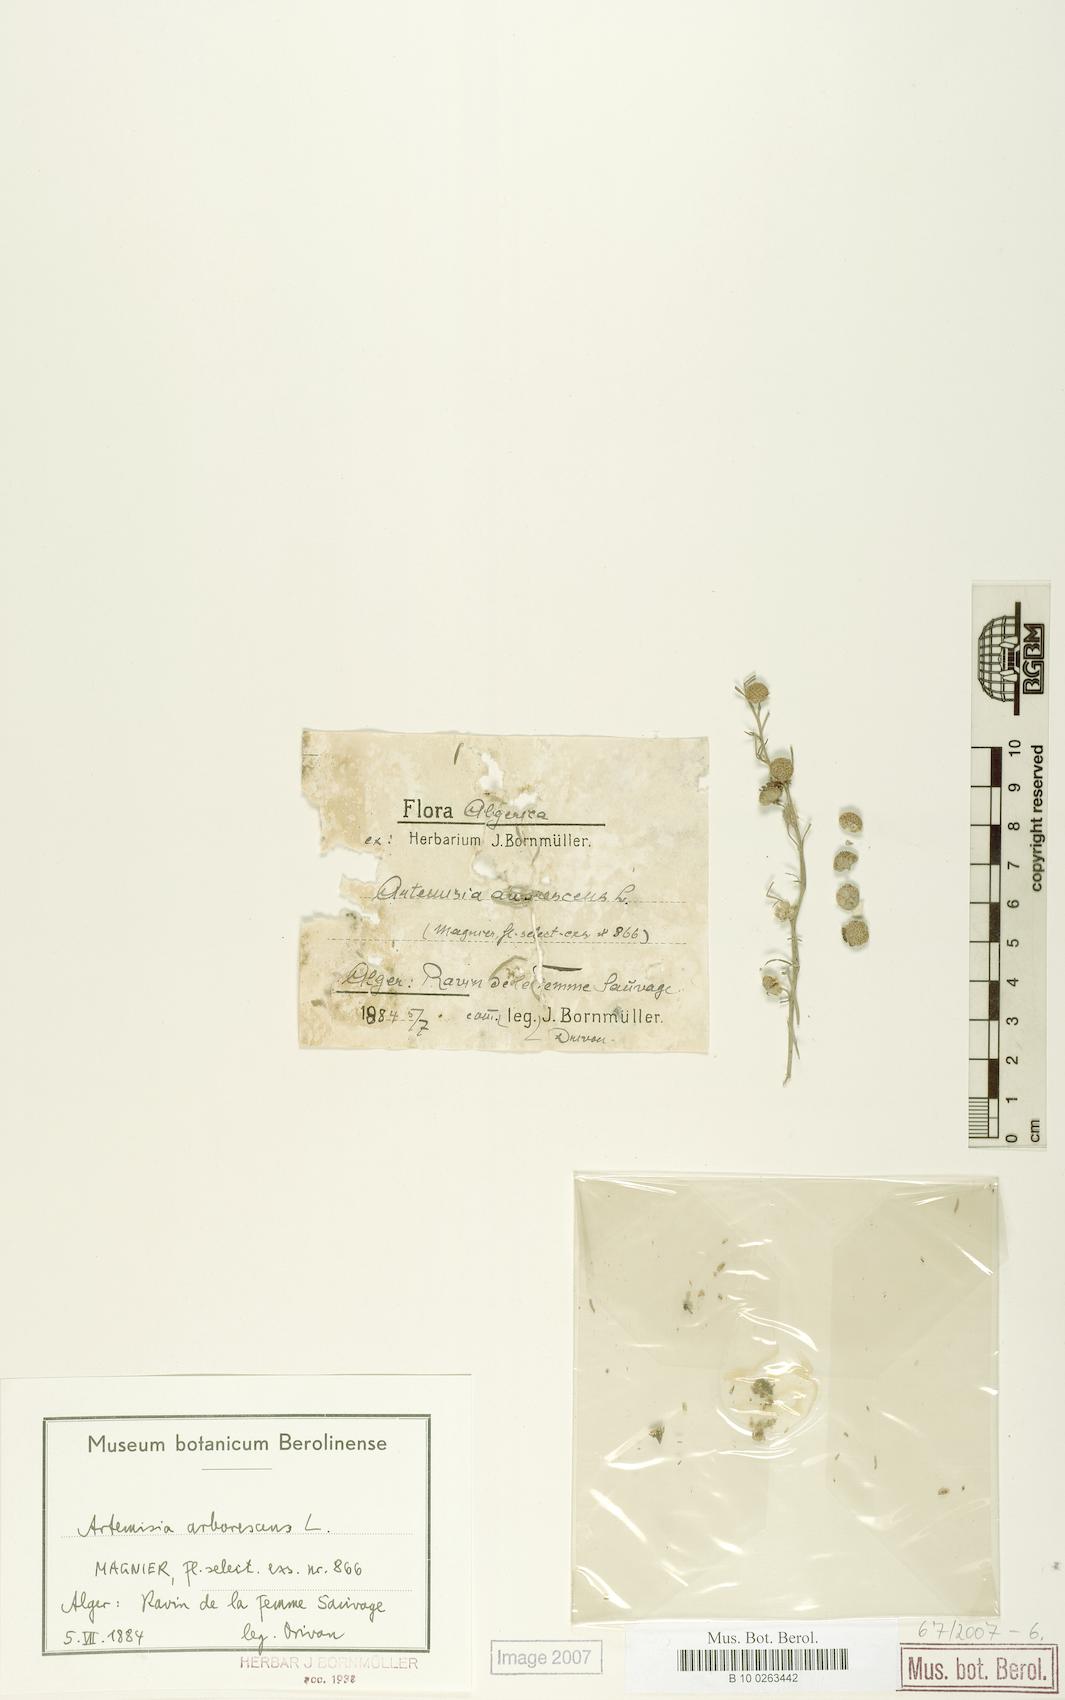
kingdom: Plantae
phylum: Tracheophyta
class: Magnoliopsida
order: Asterales
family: Asteraceae
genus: Artemisia
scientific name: Artemisia arborescens
